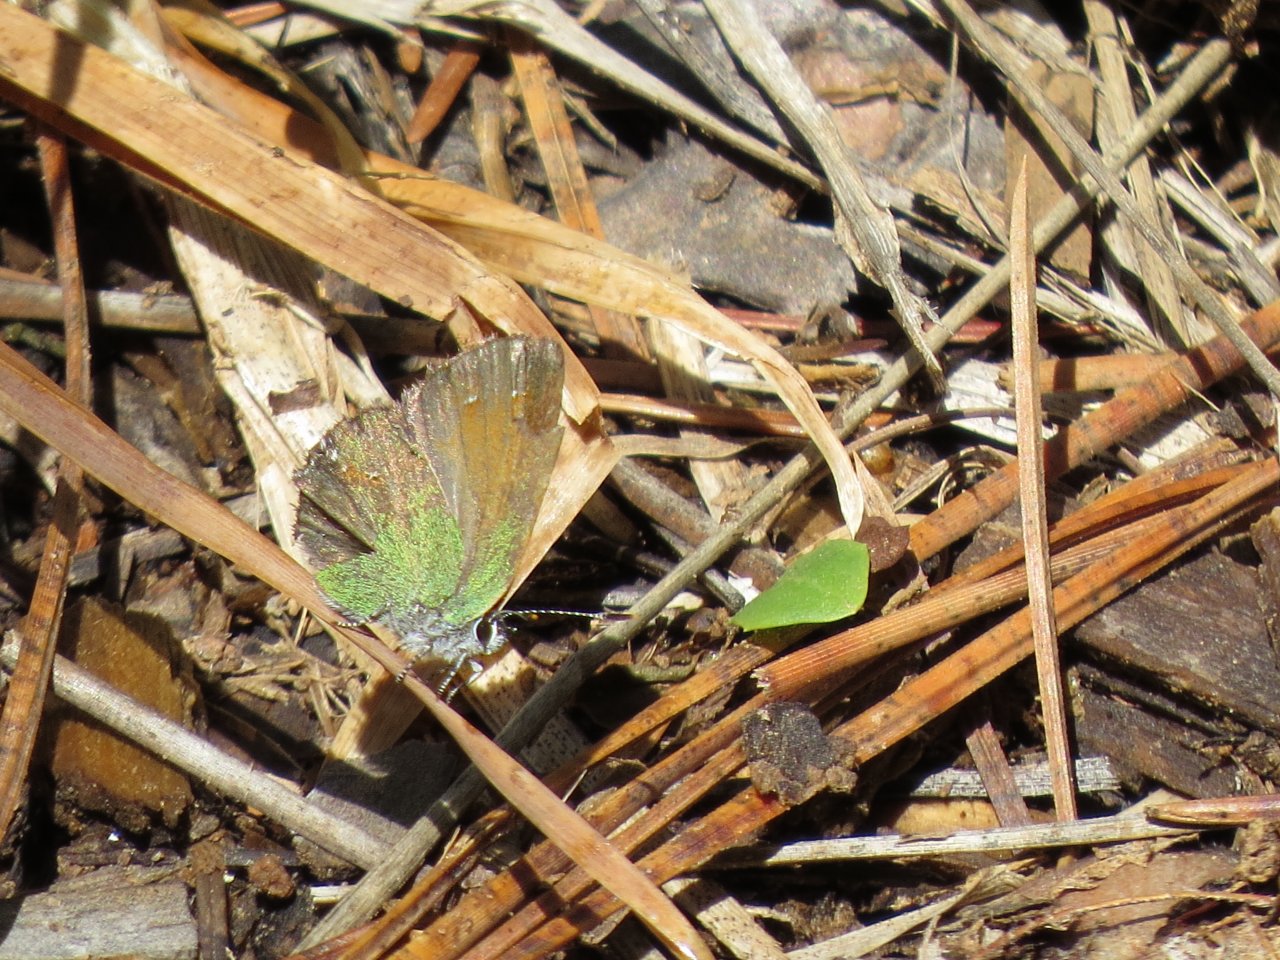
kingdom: Animalia
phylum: Arthropoda
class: Insecta
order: Lepidoptera
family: Lycaenidae
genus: Satyrium
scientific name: Satyrium
